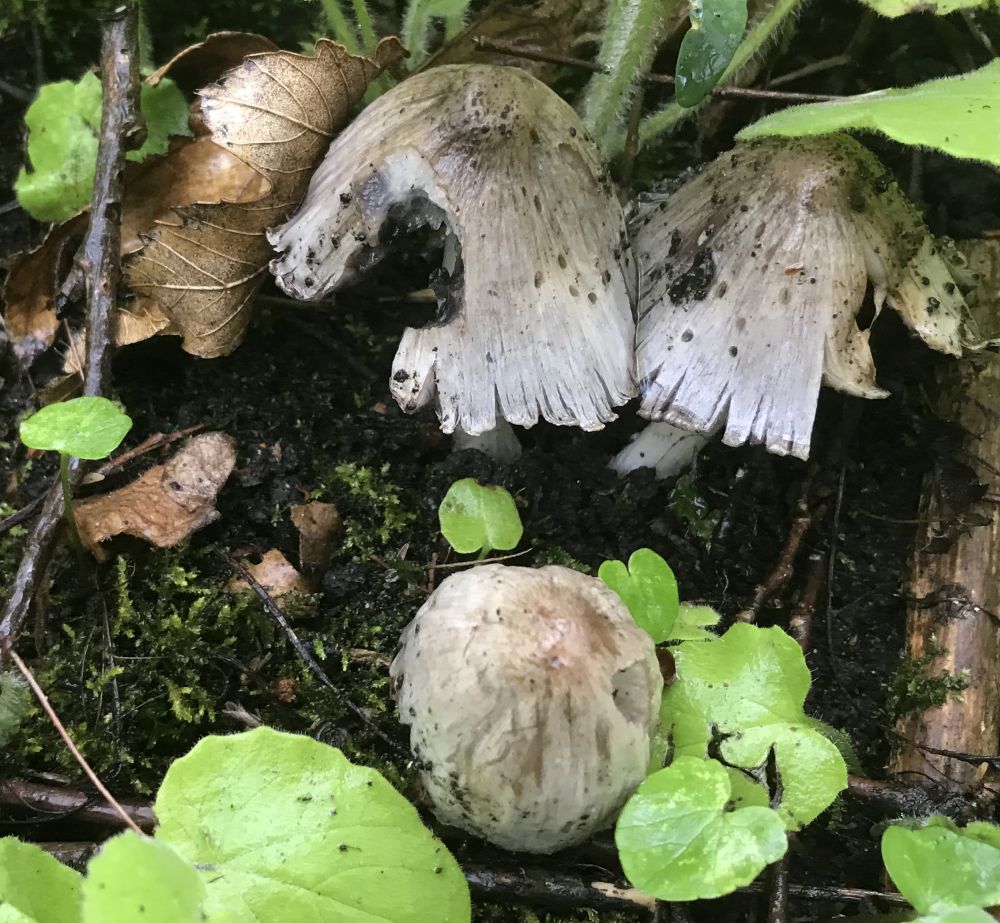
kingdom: Fungi
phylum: Basidiomycota
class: Agaricomycetes
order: Agaricales
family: Psathyrellaceae
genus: Coprinopsis
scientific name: Coprinopsis atramentaria
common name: almindelig blækhat
